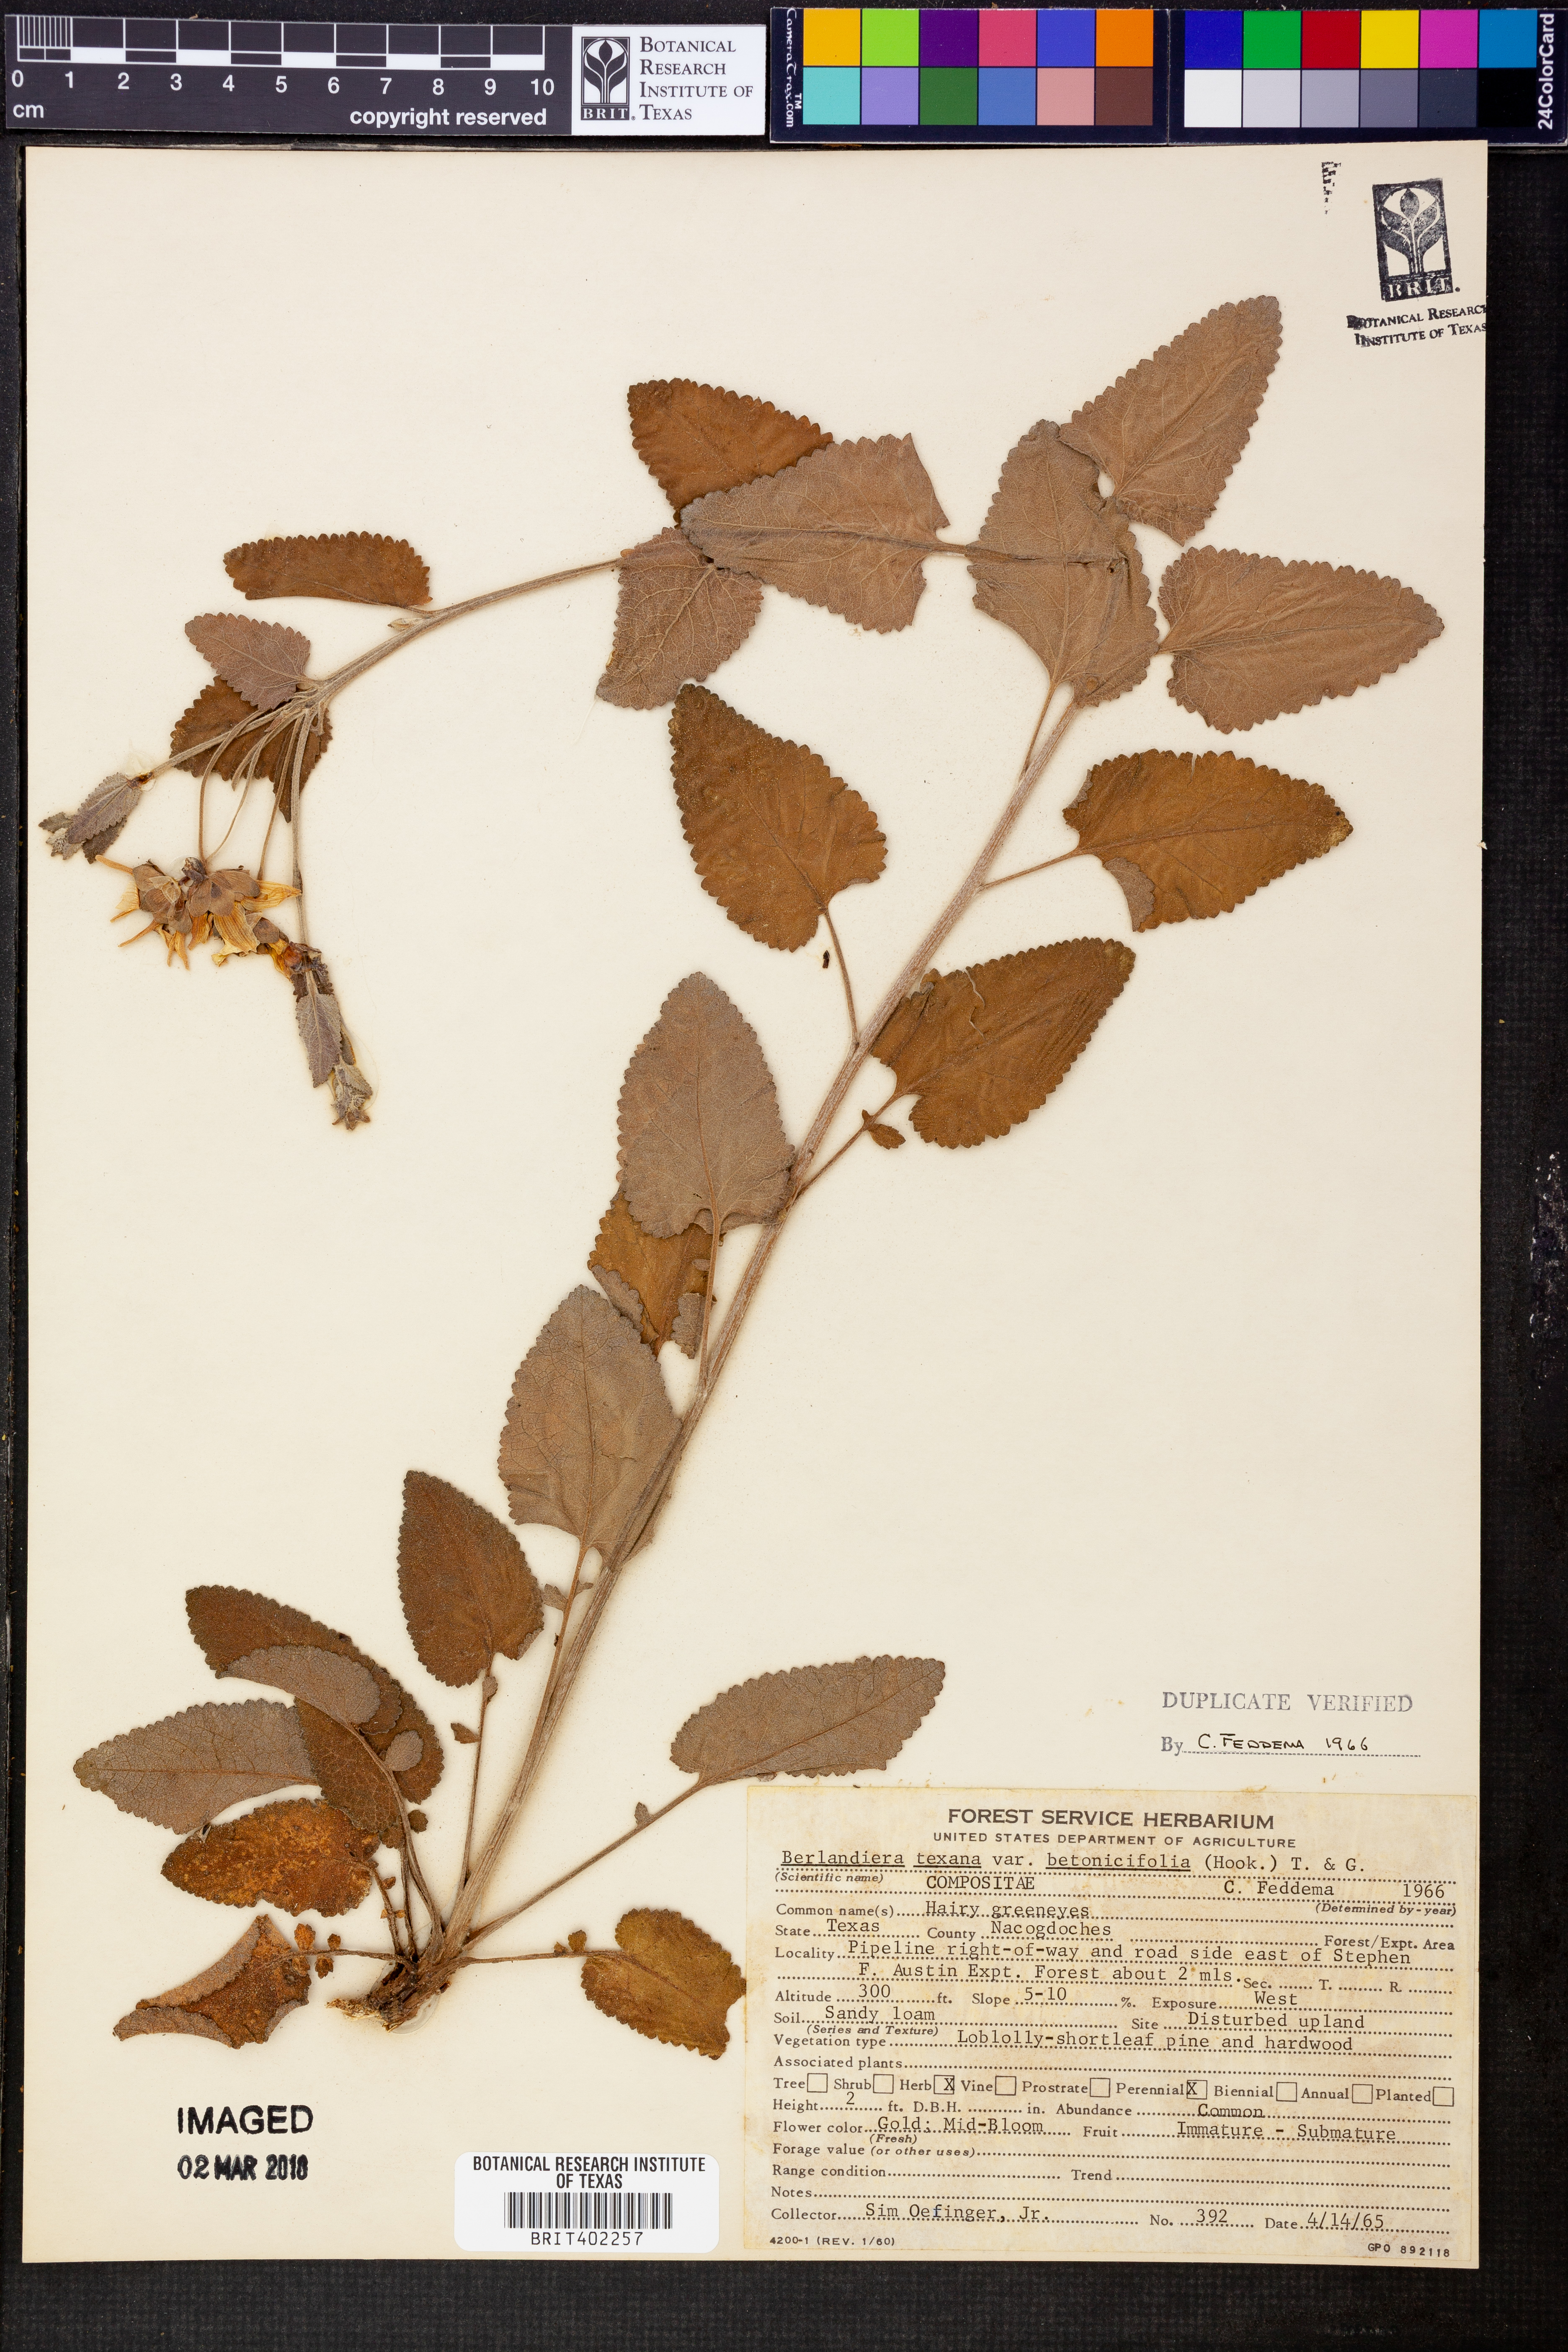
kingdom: Plantae
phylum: Tracheophyta
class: Magnoliopsida
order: Asterales
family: Asteraceae
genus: Berlandiera
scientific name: Berlandiera betonicifolia
